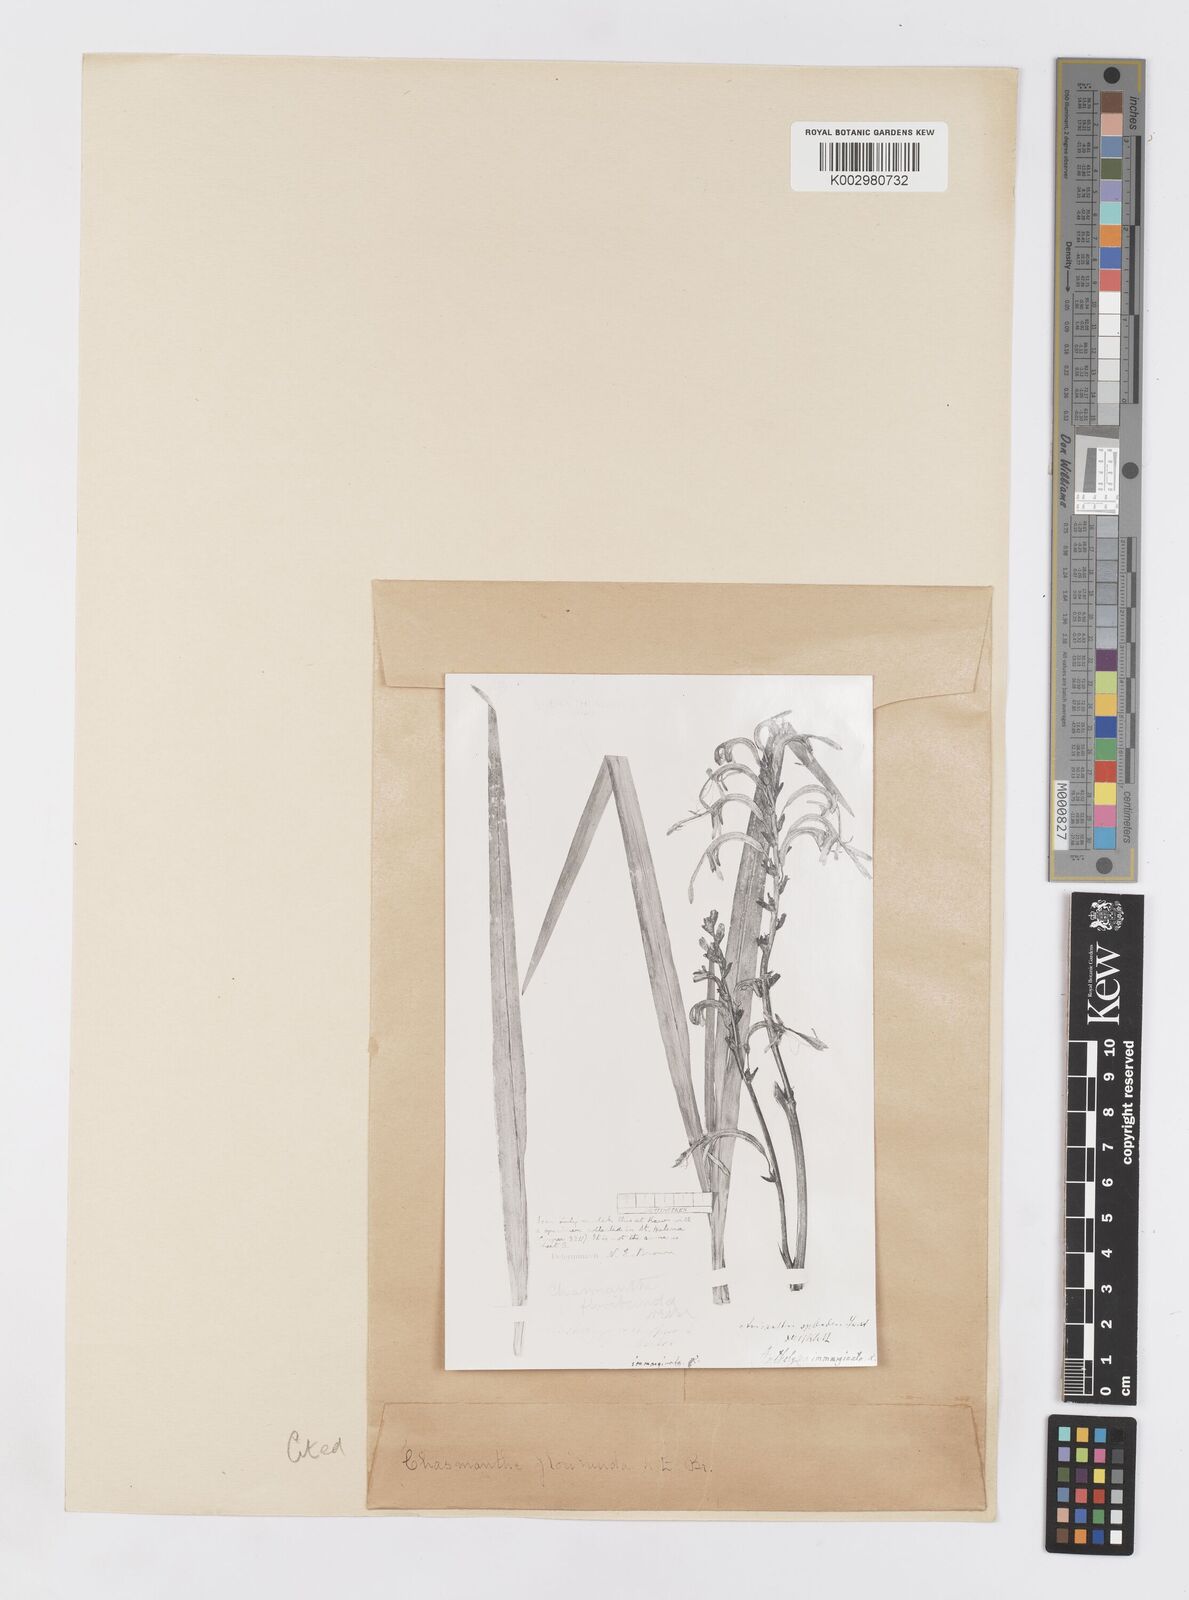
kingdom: Plantae
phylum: Tracheophyta
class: Liliopsida
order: Asparagales
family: Iridaceae
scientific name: Iridaceae
